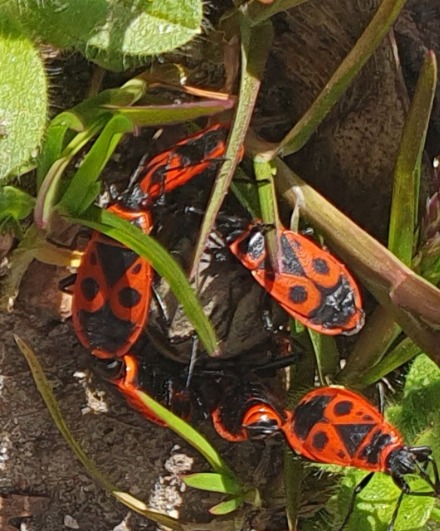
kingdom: Animalia
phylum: Arthropoda
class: Insecta
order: Hemiptera
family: Pyrrhocoridae
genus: Pyrrhocoris
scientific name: Pyrrhocoris apterus
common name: Ildtæge
